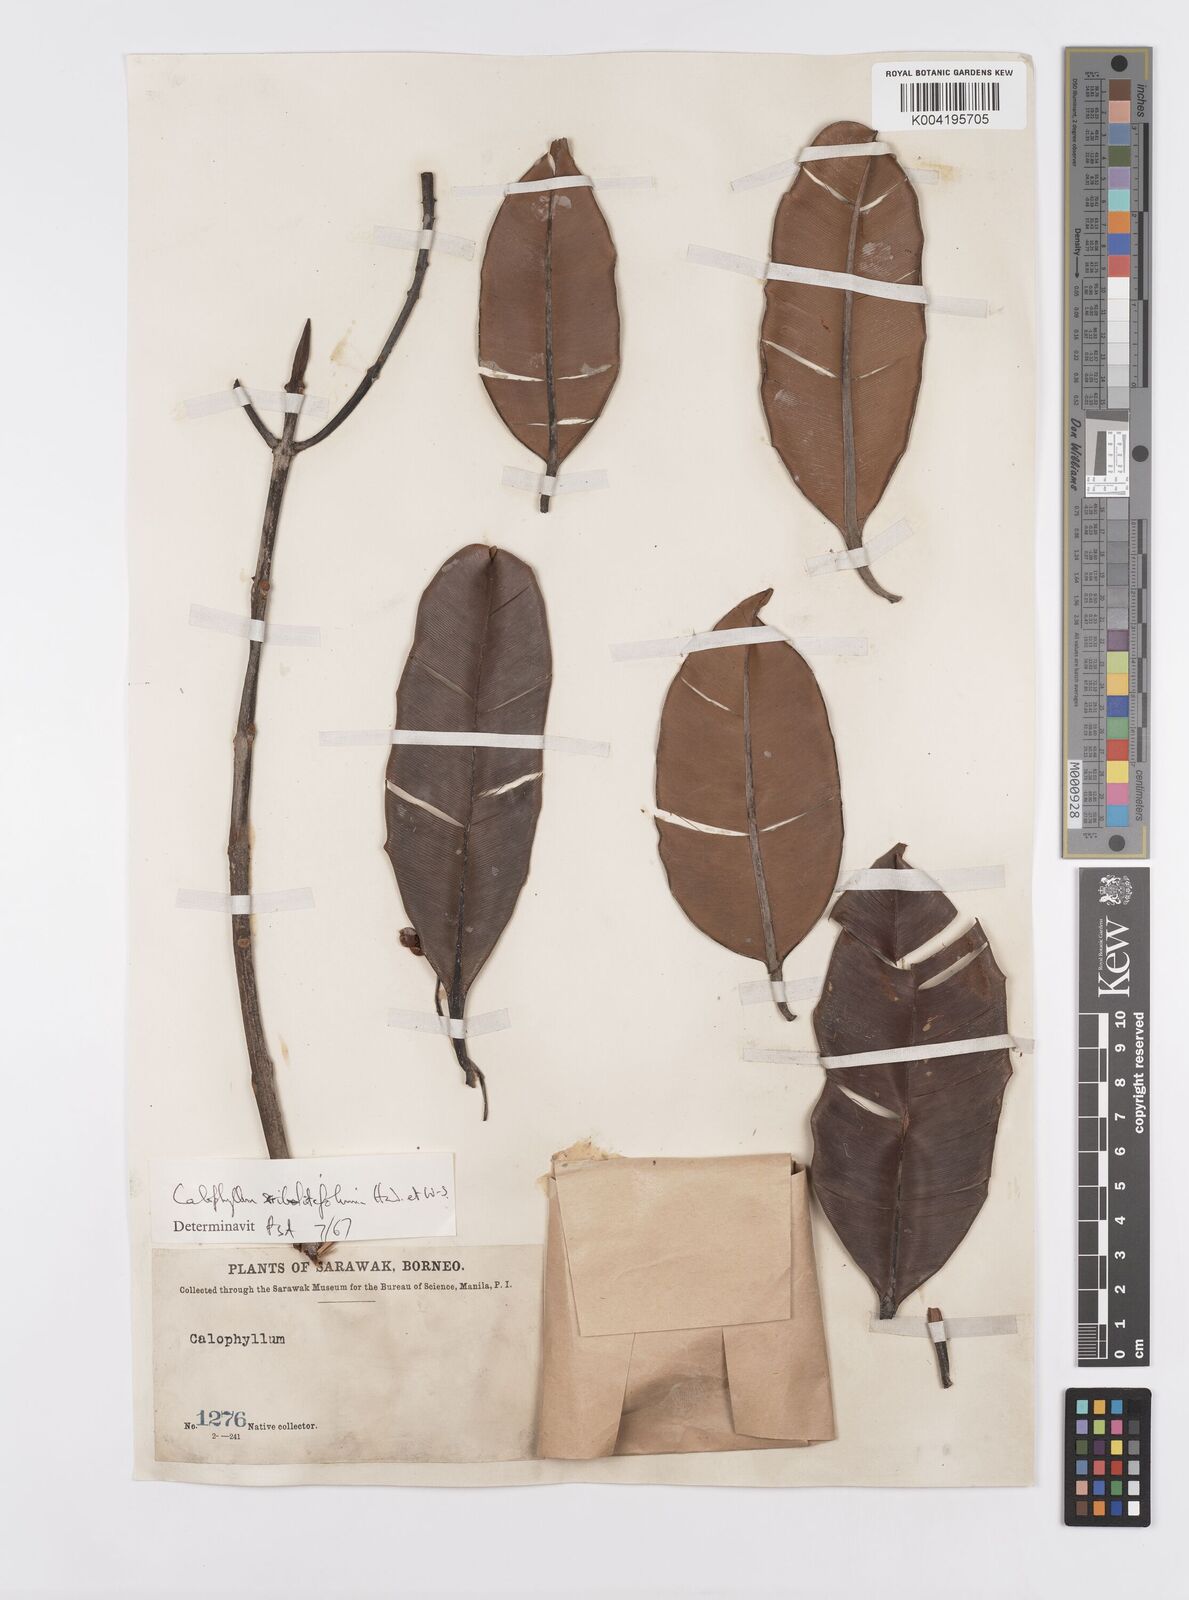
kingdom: Plantae
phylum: Tracheophyta
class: Magnoliopsida
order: Malpighiales
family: Calophyllaceae
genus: Calophyllum
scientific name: Calophyllum scriblitifolium
